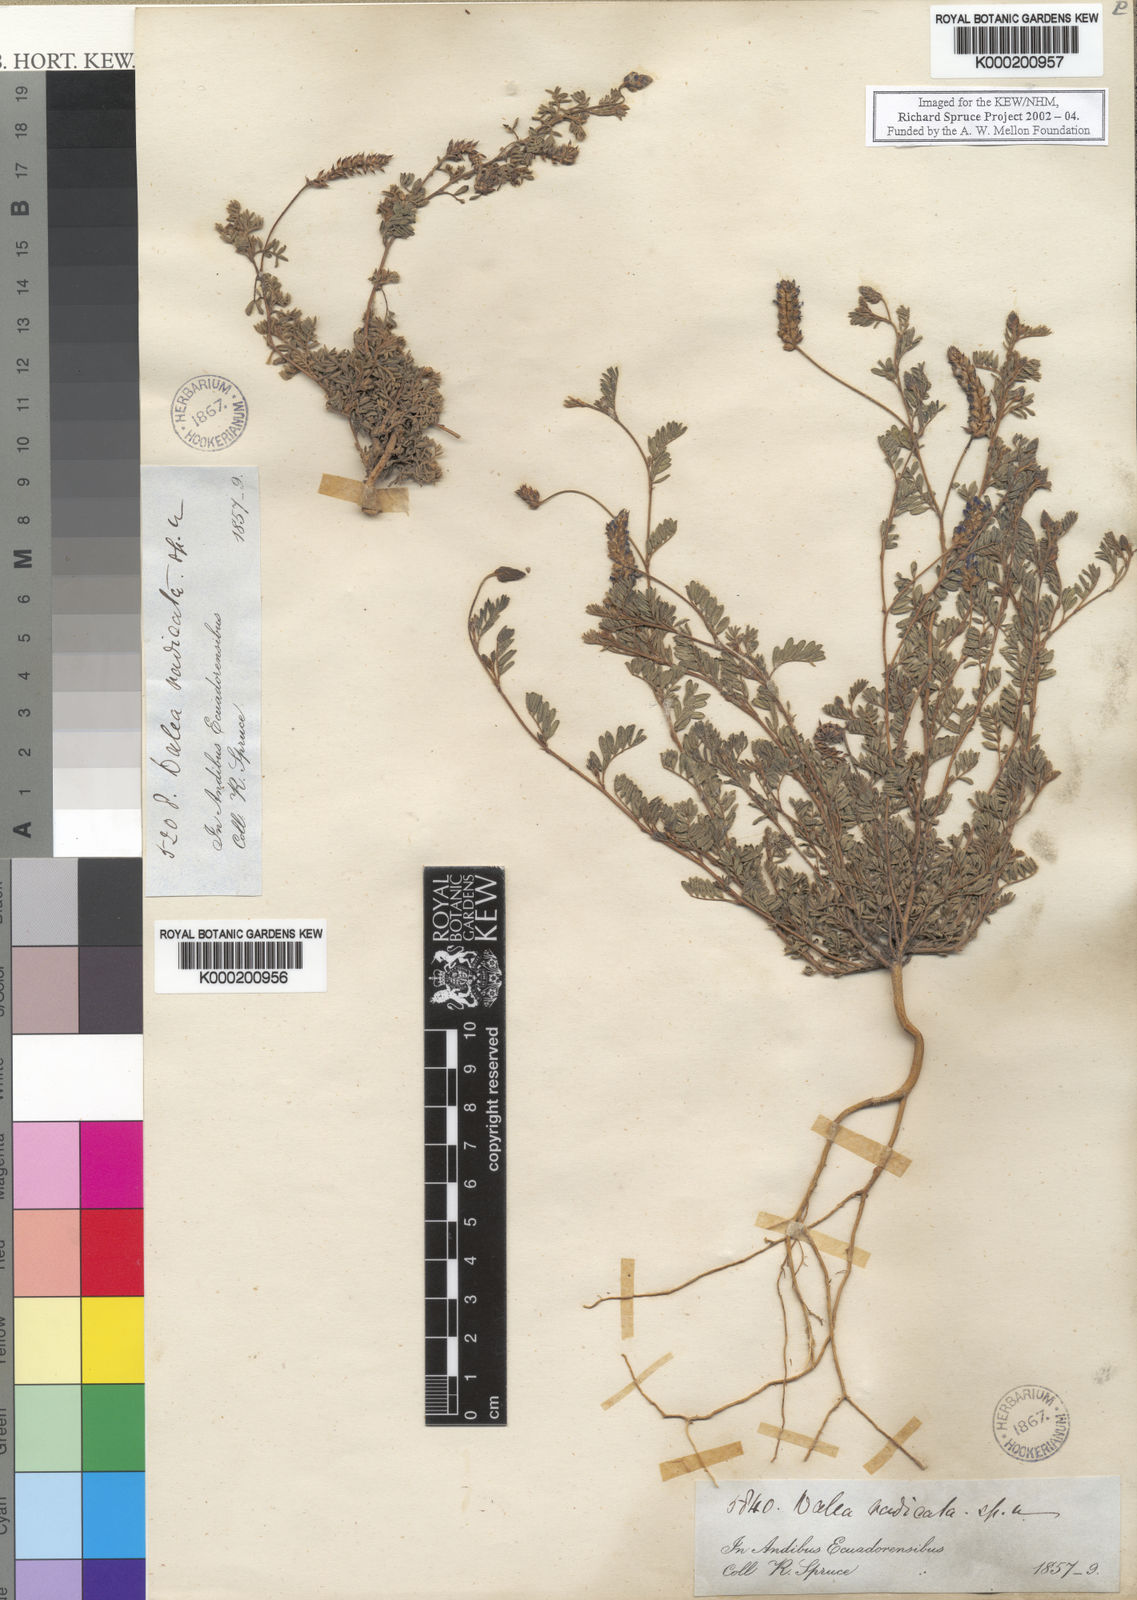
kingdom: Plantae
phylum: Tracheophyta
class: Magnoliopsida
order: Fabales
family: Fabaceae
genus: Dalea
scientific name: Dalea
